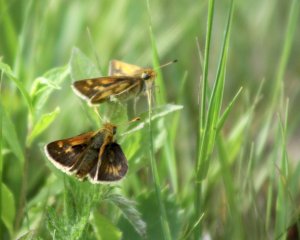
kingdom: Animalia
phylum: Arthropoda
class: Insecta
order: Lepidoptera
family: Hesperiidae
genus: Polites
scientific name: Polites coras
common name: Peck's Skipper
